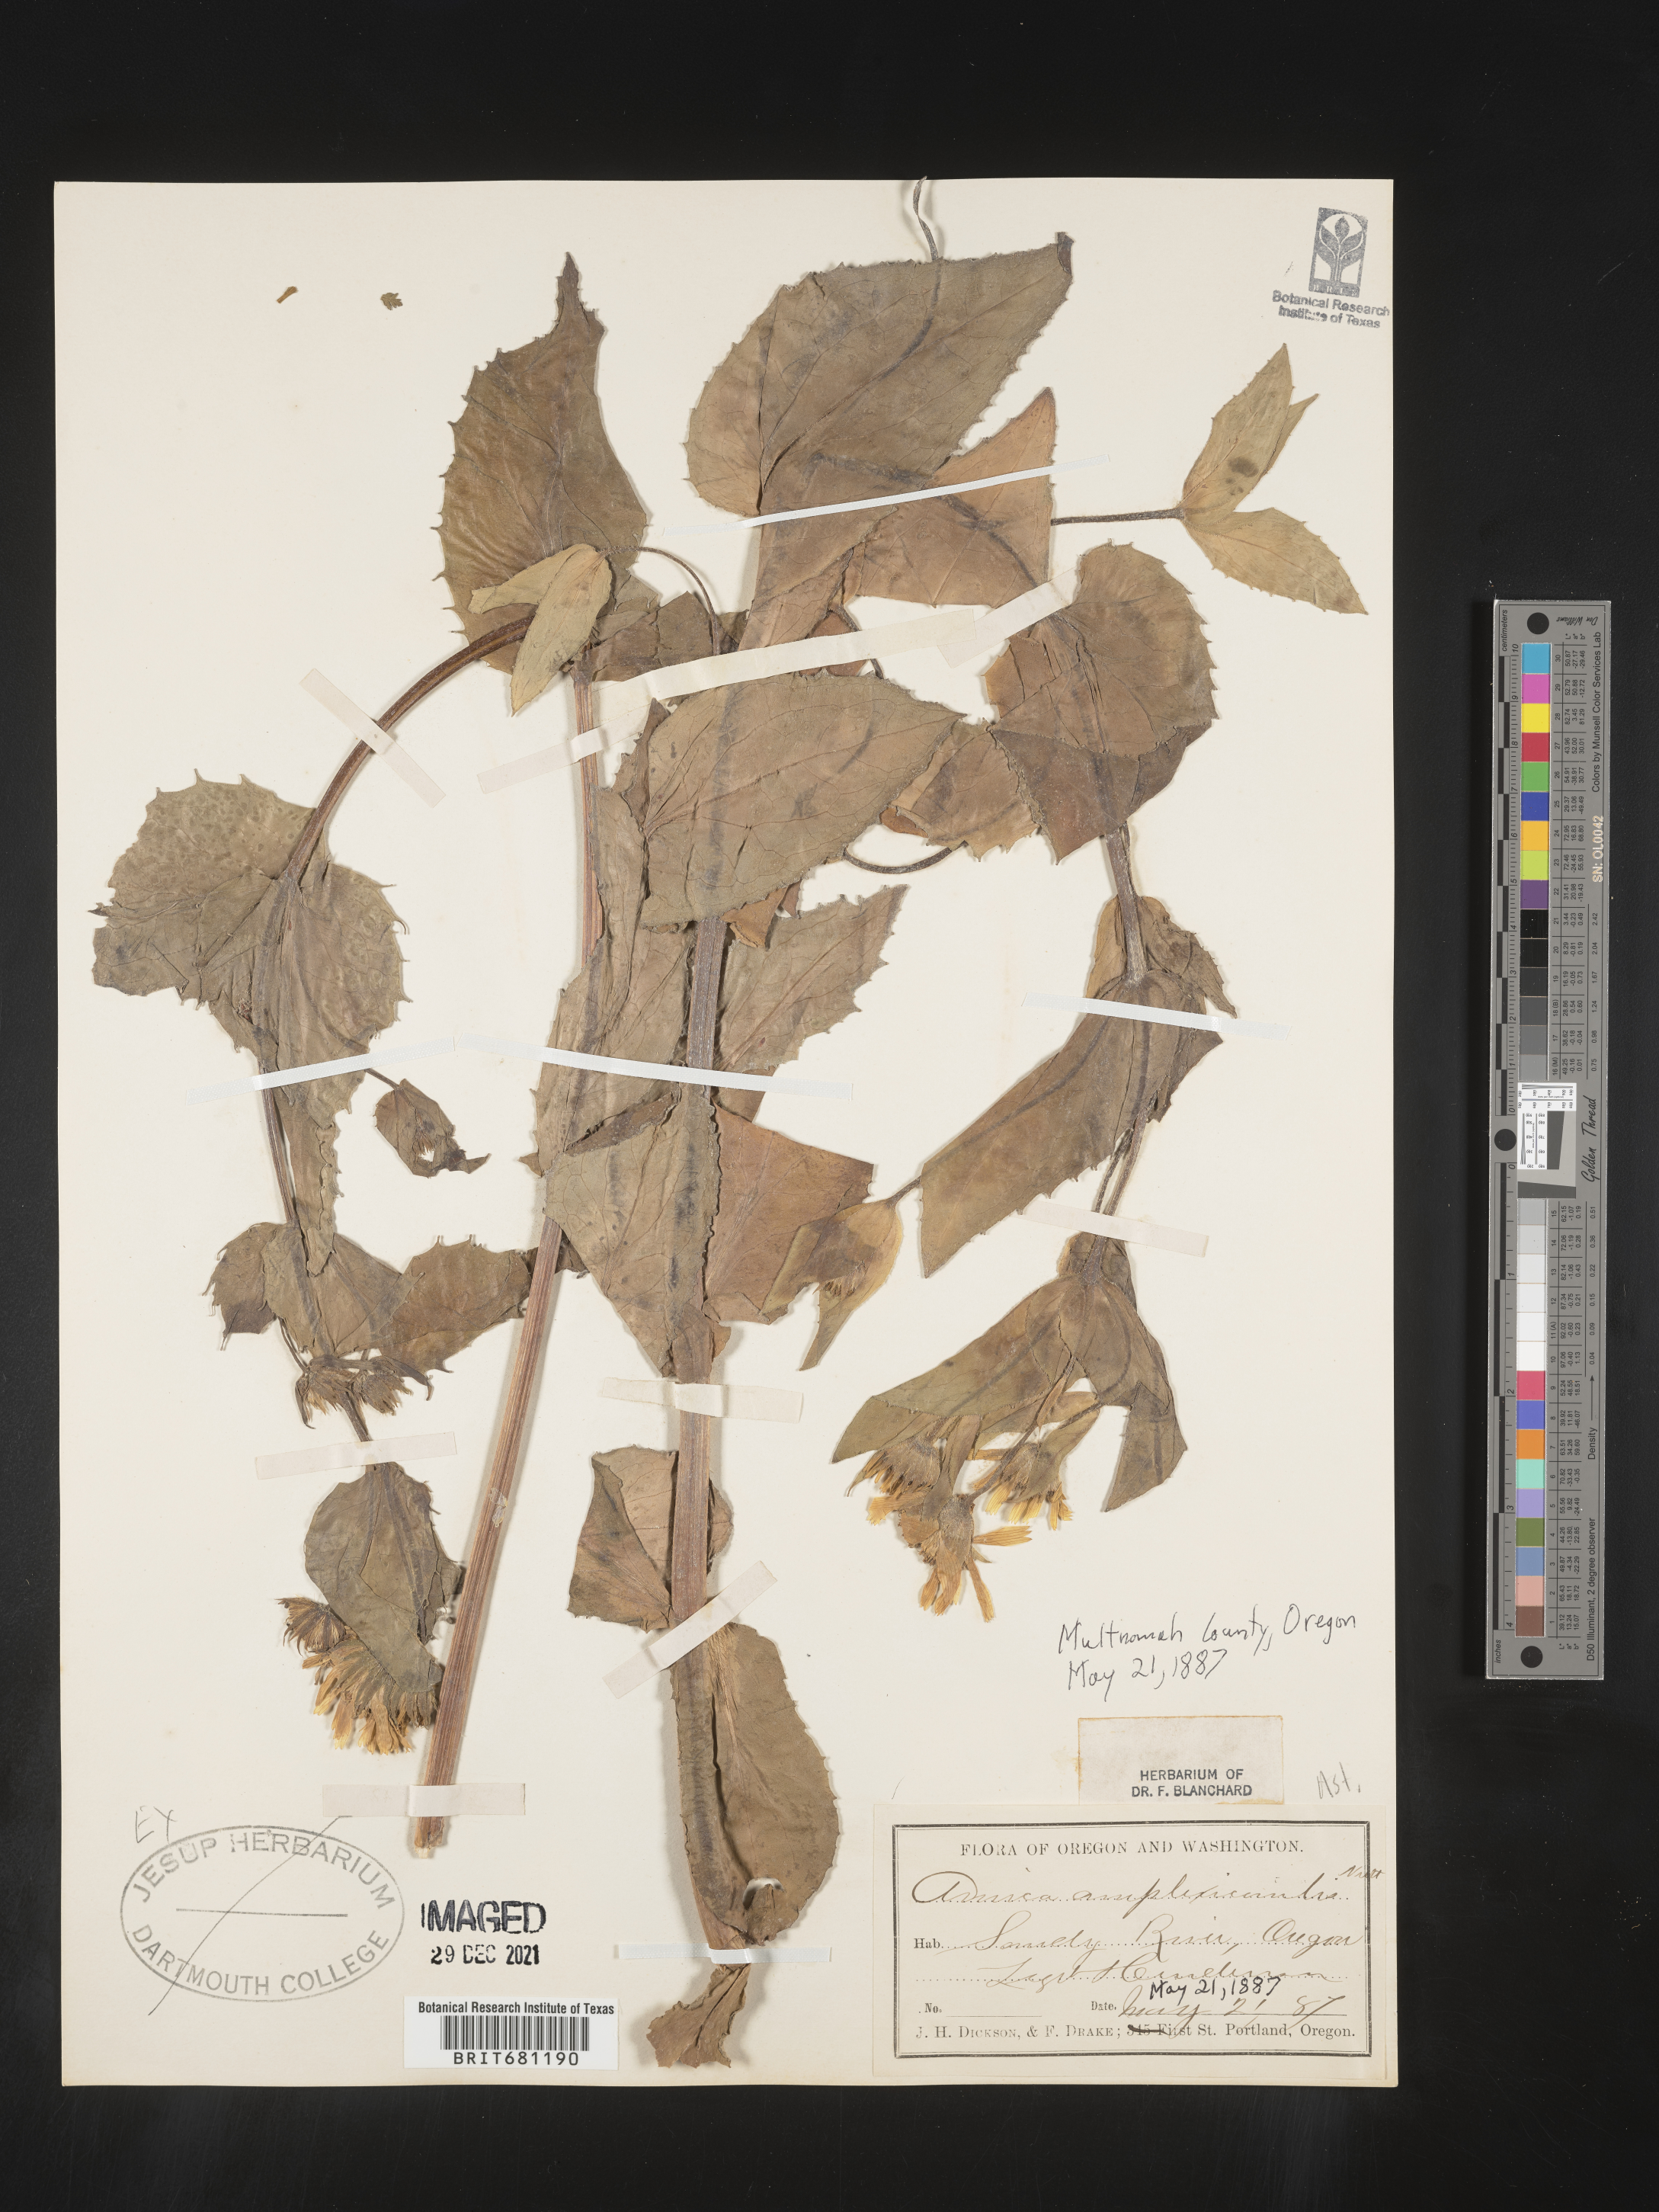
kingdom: Plantae
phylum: Tracheophyta
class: Magnoliopsida
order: Asterales
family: Asteraceae
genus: Arnica
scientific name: Arnica lanceolata
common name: Lance-leaved arnica
